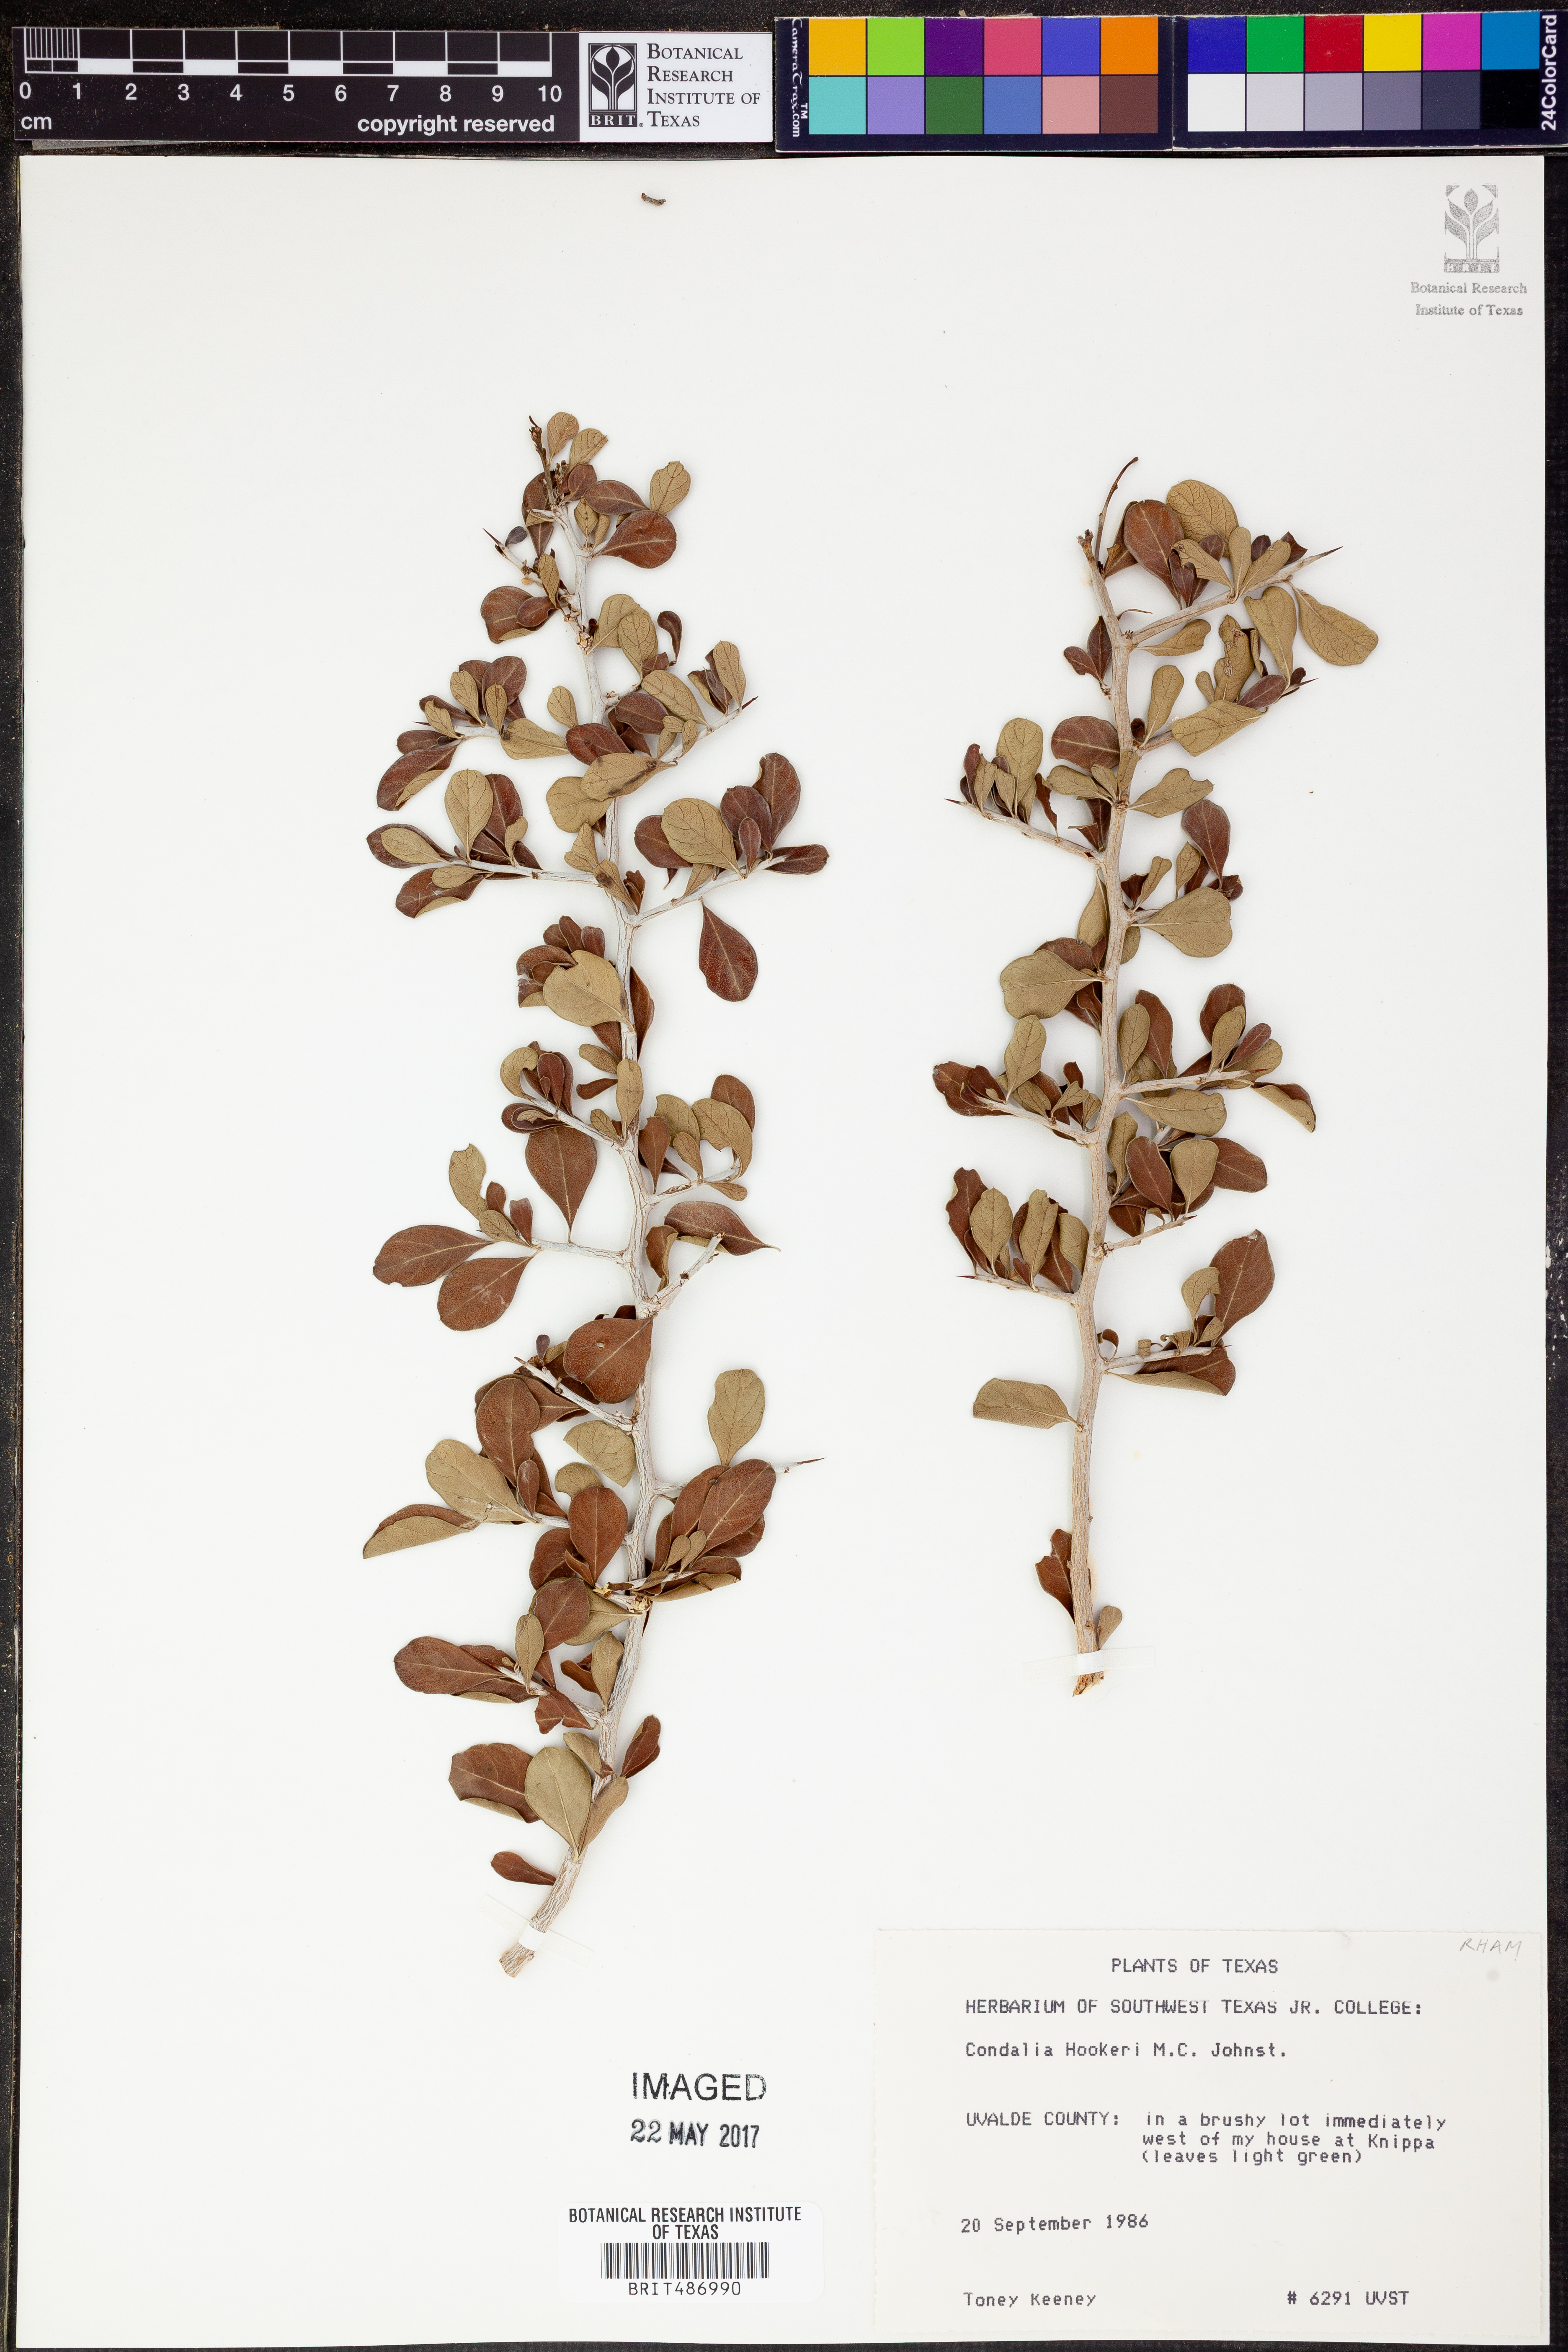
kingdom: Plantae
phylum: Tracheophyta
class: Magnoliopsida
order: Rosales
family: Rhamnaceae
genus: Condalia
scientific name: Condalia hookeri
